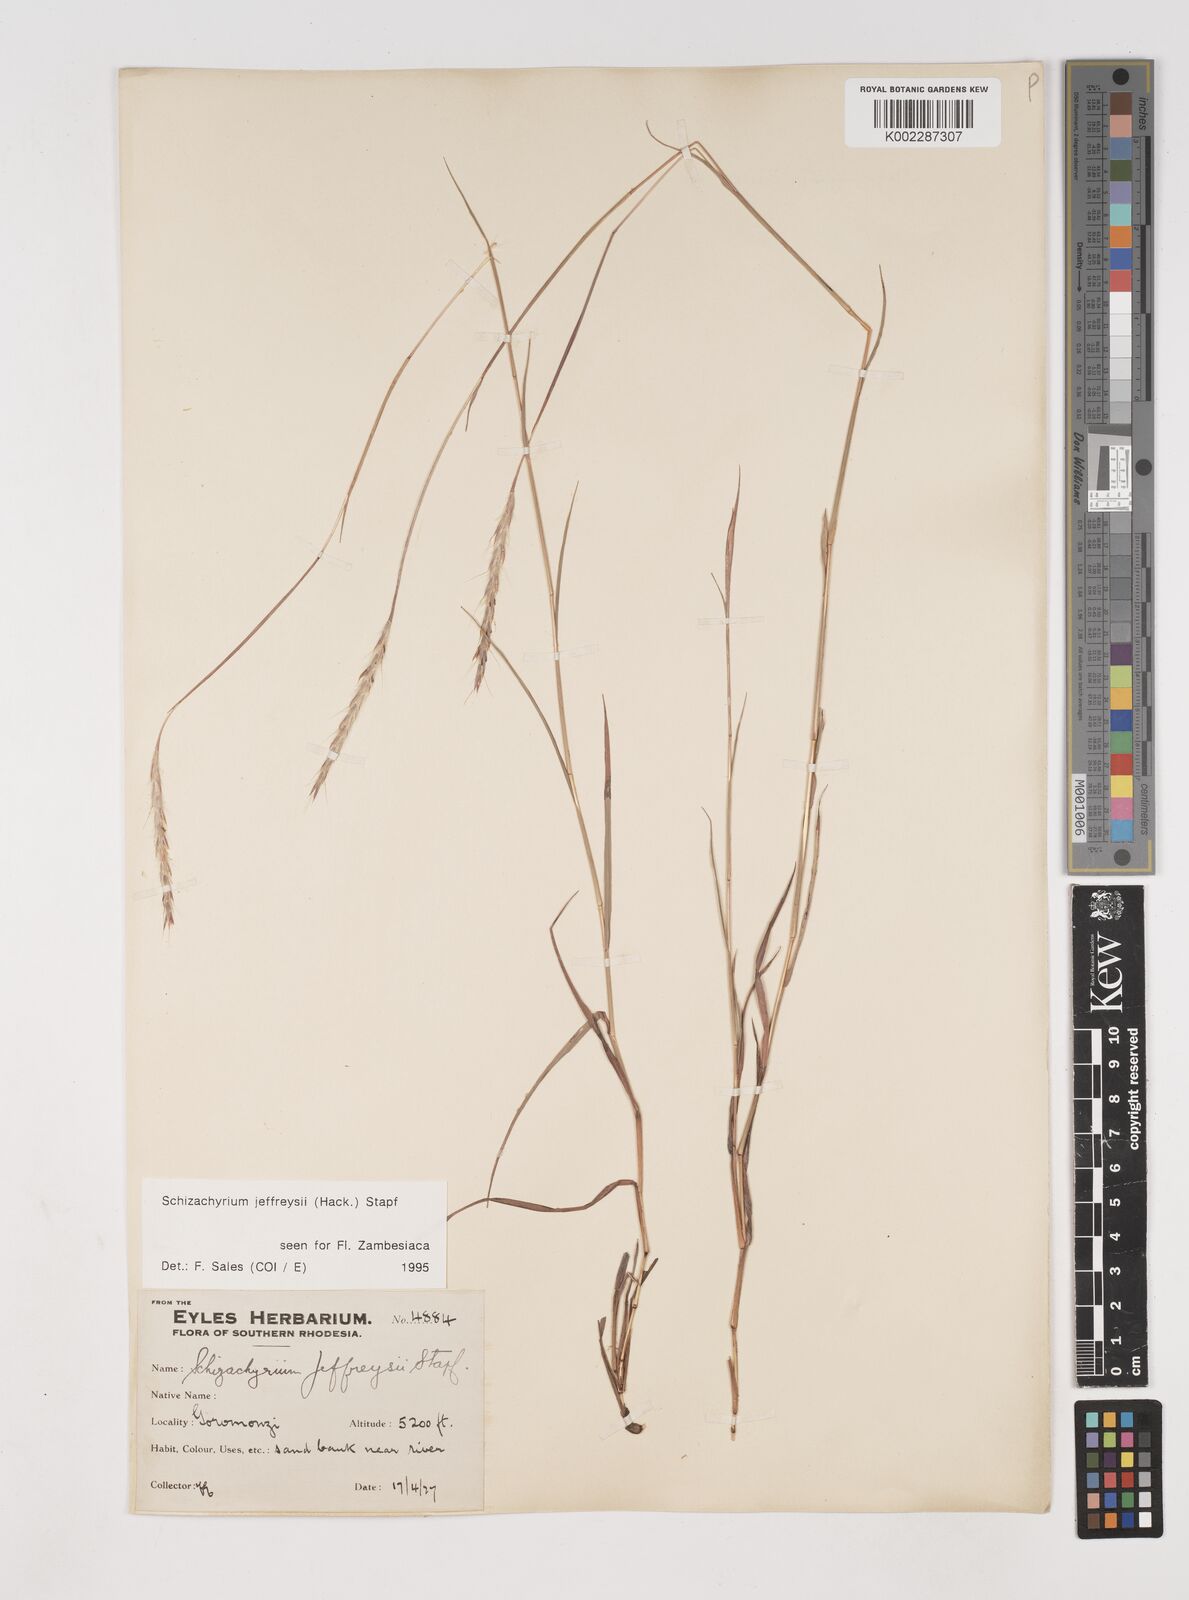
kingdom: Plantae
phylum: Tracheophyta
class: Liliopsida
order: Poales
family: Poaceae
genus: Schizachyrium
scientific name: Schizachyrium jeffreysii
